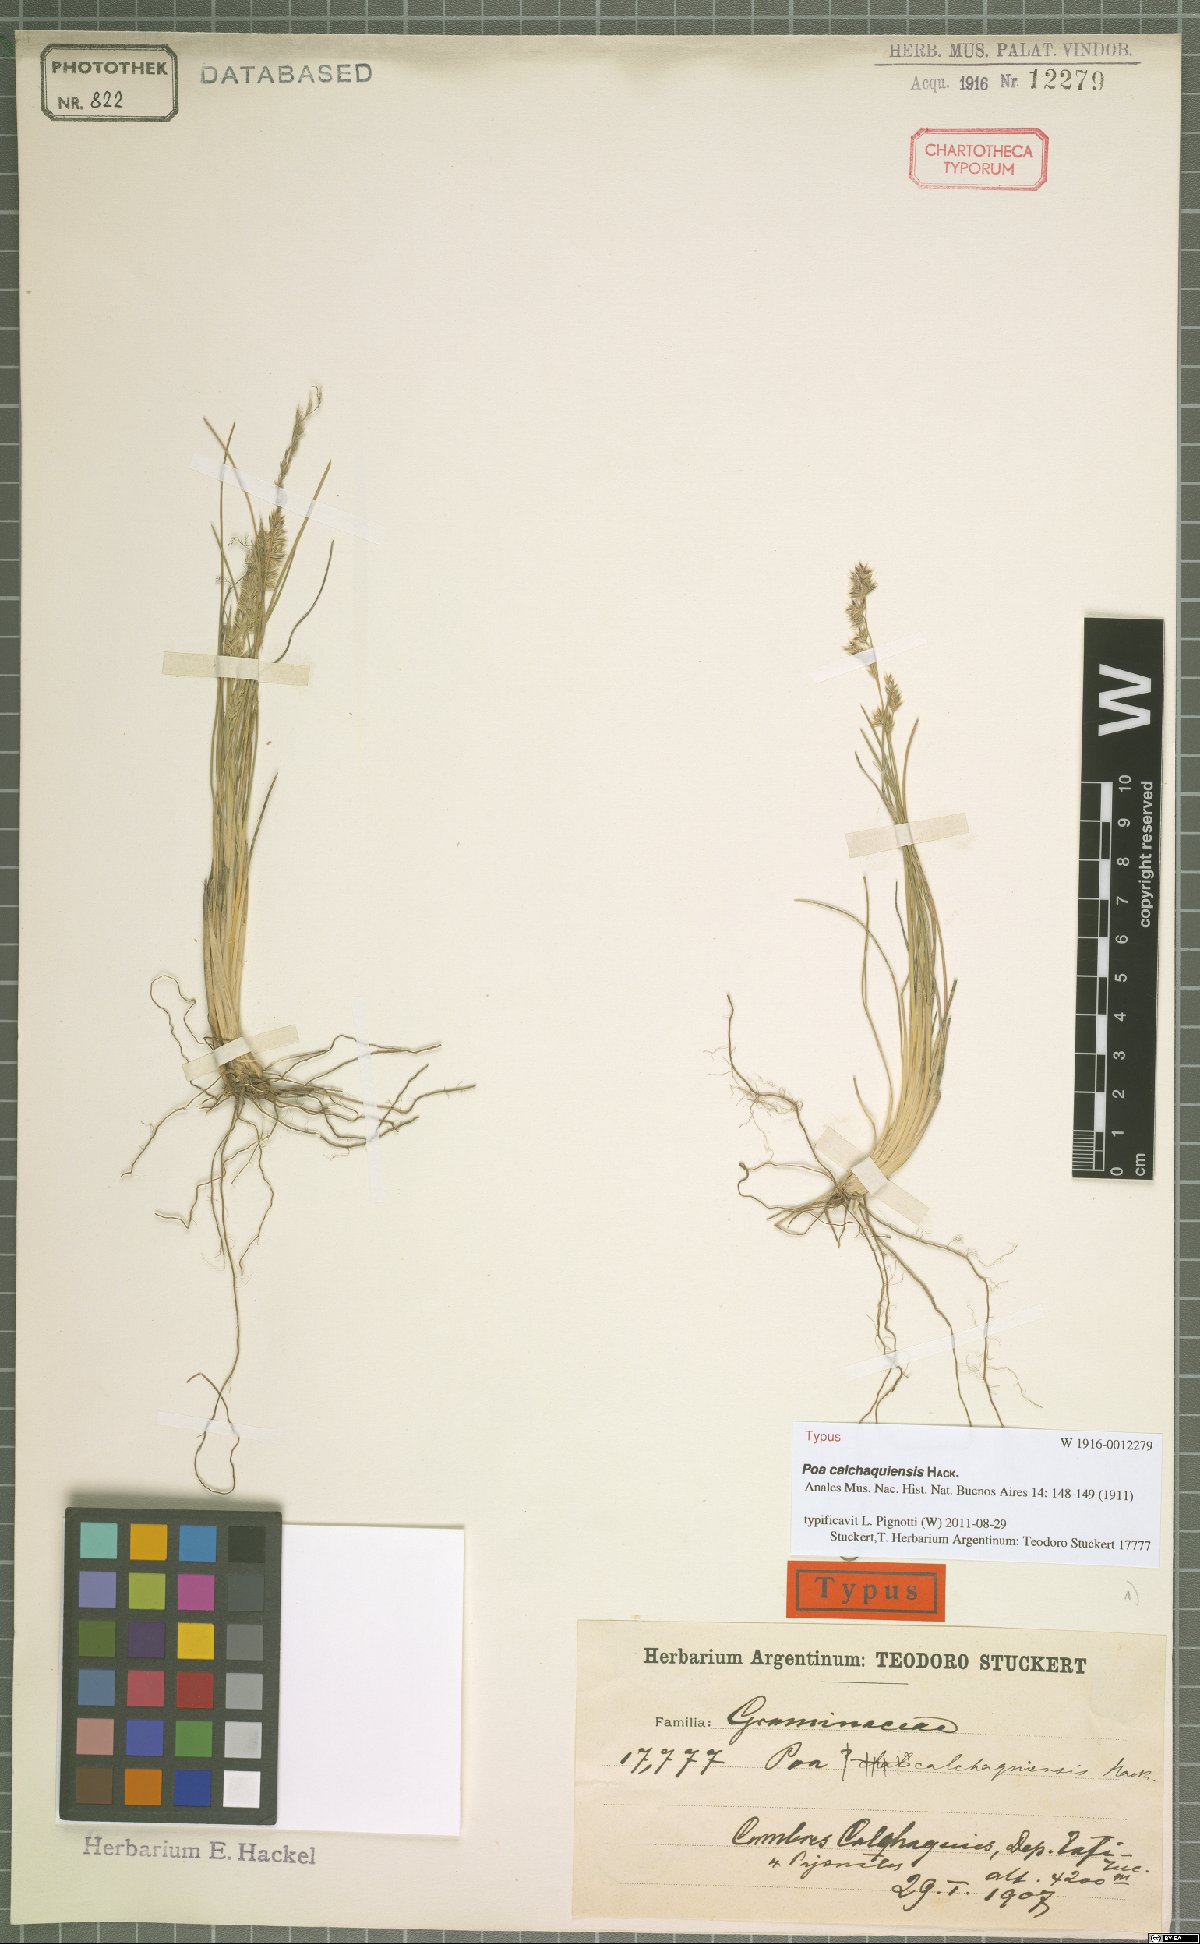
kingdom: Plantae
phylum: Tracheophyta
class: Liliopsida
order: Poales
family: Poaceae
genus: Poa
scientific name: Poa calchaquiensis
